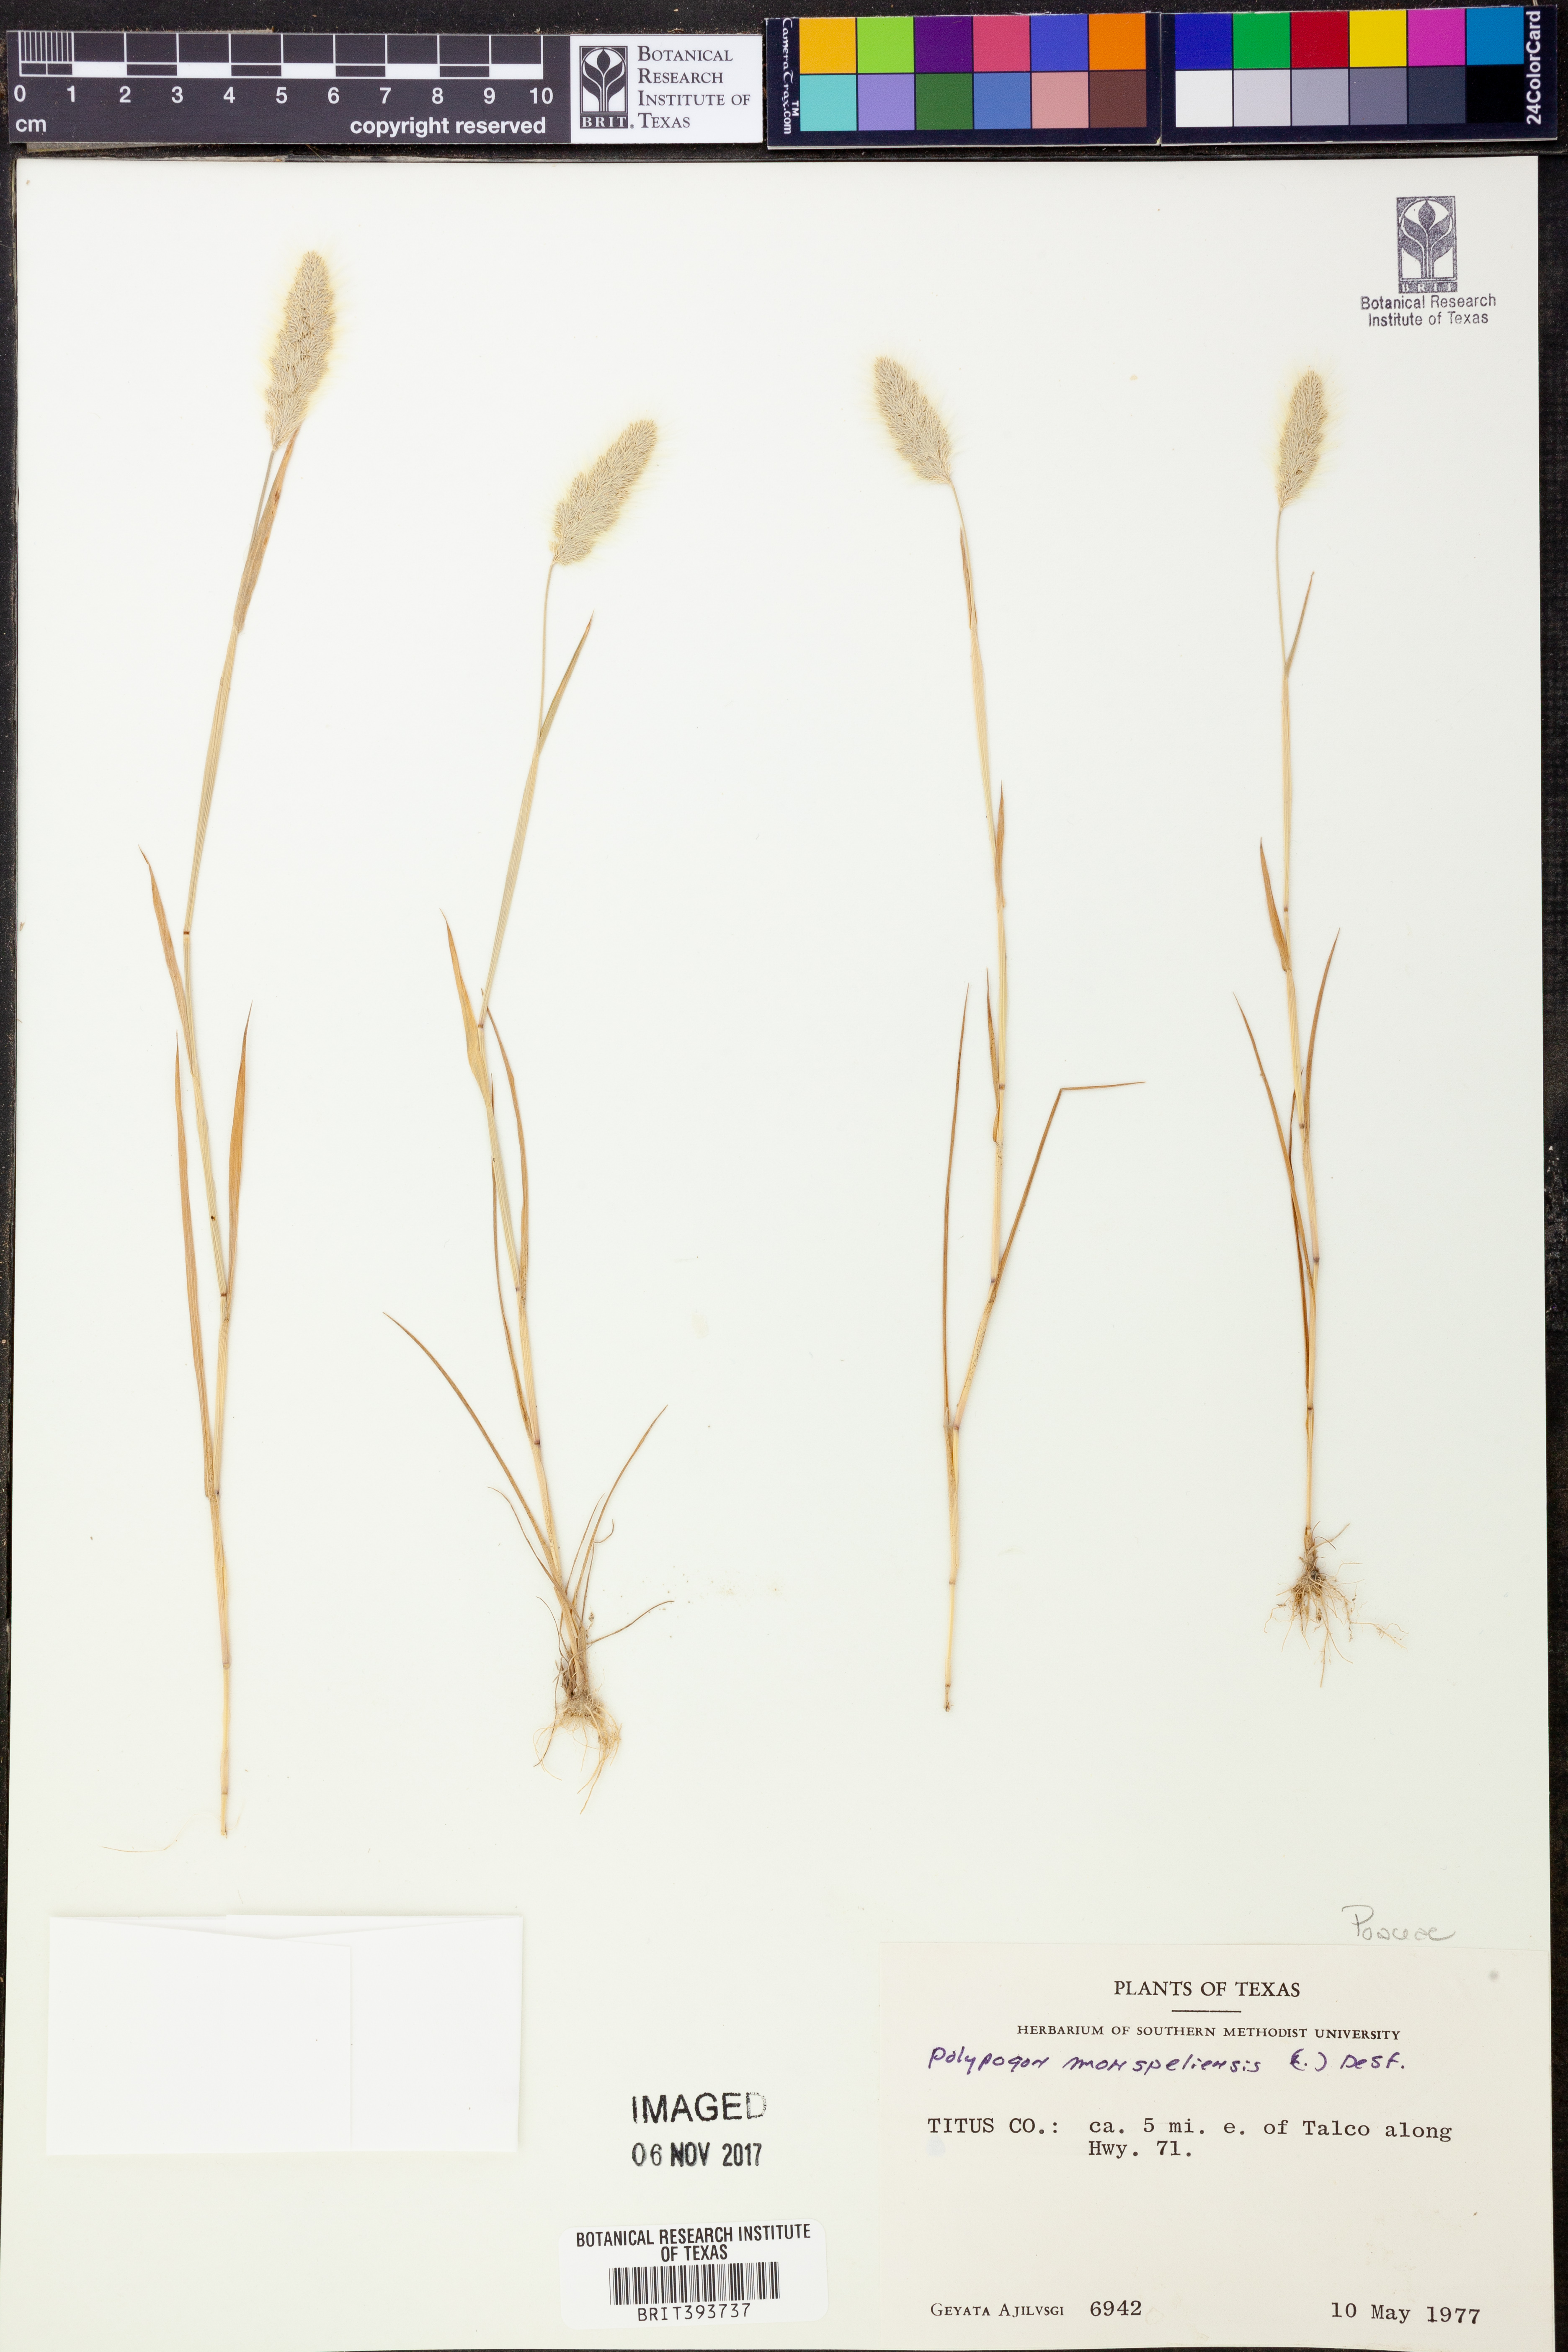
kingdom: Plantae
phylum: Tracheophyta
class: Liliopsida
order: Poales
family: Poaceae
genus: Polypogon
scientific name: Polypogon monspeliensis
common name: Annual rabbitsfoot grass
